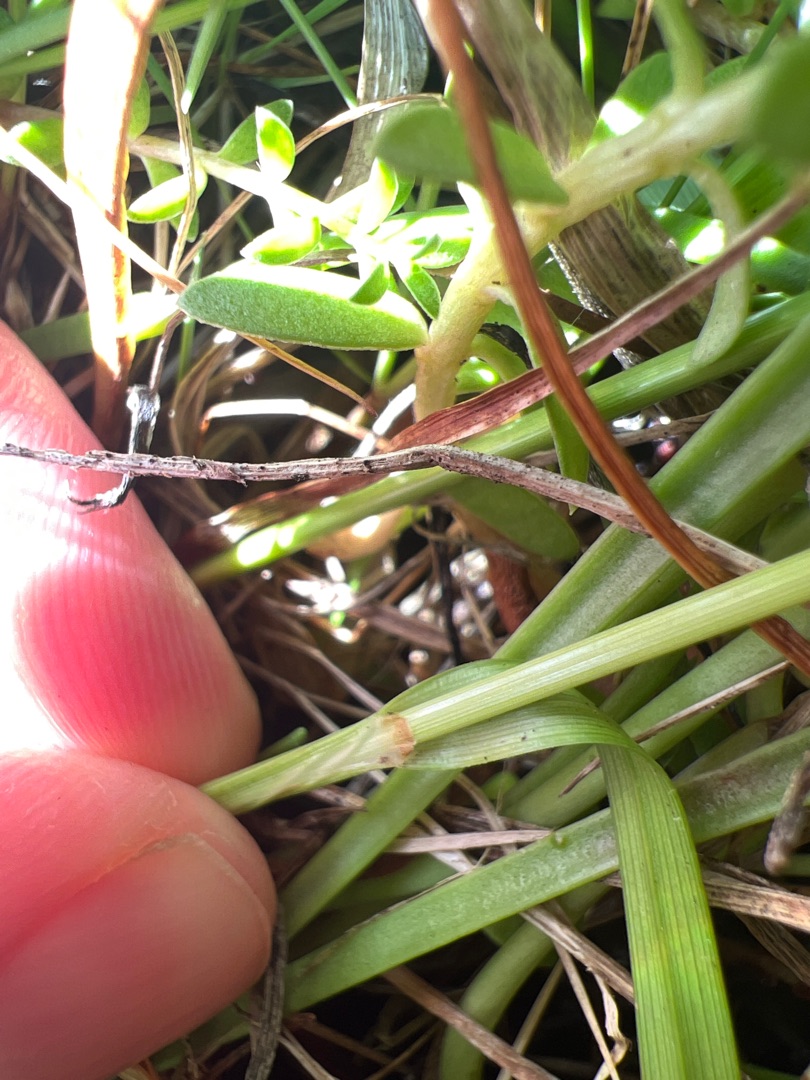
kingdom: Plantae
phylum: Tracheophyta
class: Liliopsida
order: Poales
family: Cyperaceae
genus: Carex
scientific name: Carex distans
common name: Fjernakset star
